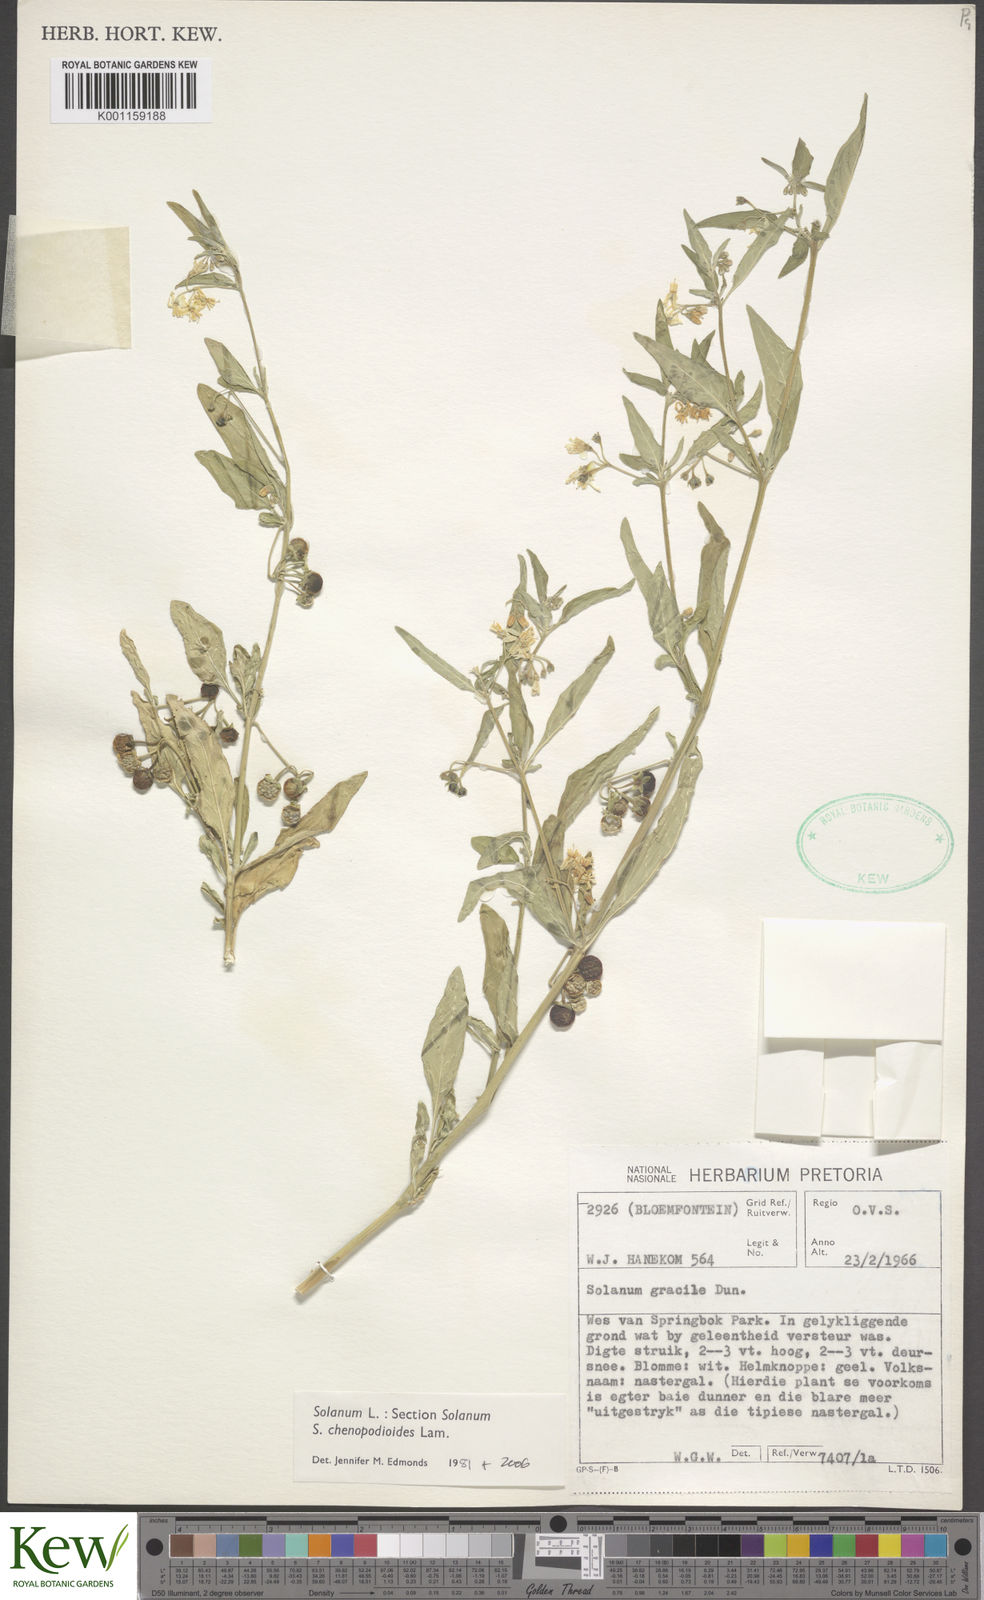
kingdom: Plantae
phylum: Tracheophyta
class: Magnoliopsida
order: Solanales
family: Solanaceae
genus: Solanum
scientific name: Solanum chenopodioides
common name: Tall nightshade
